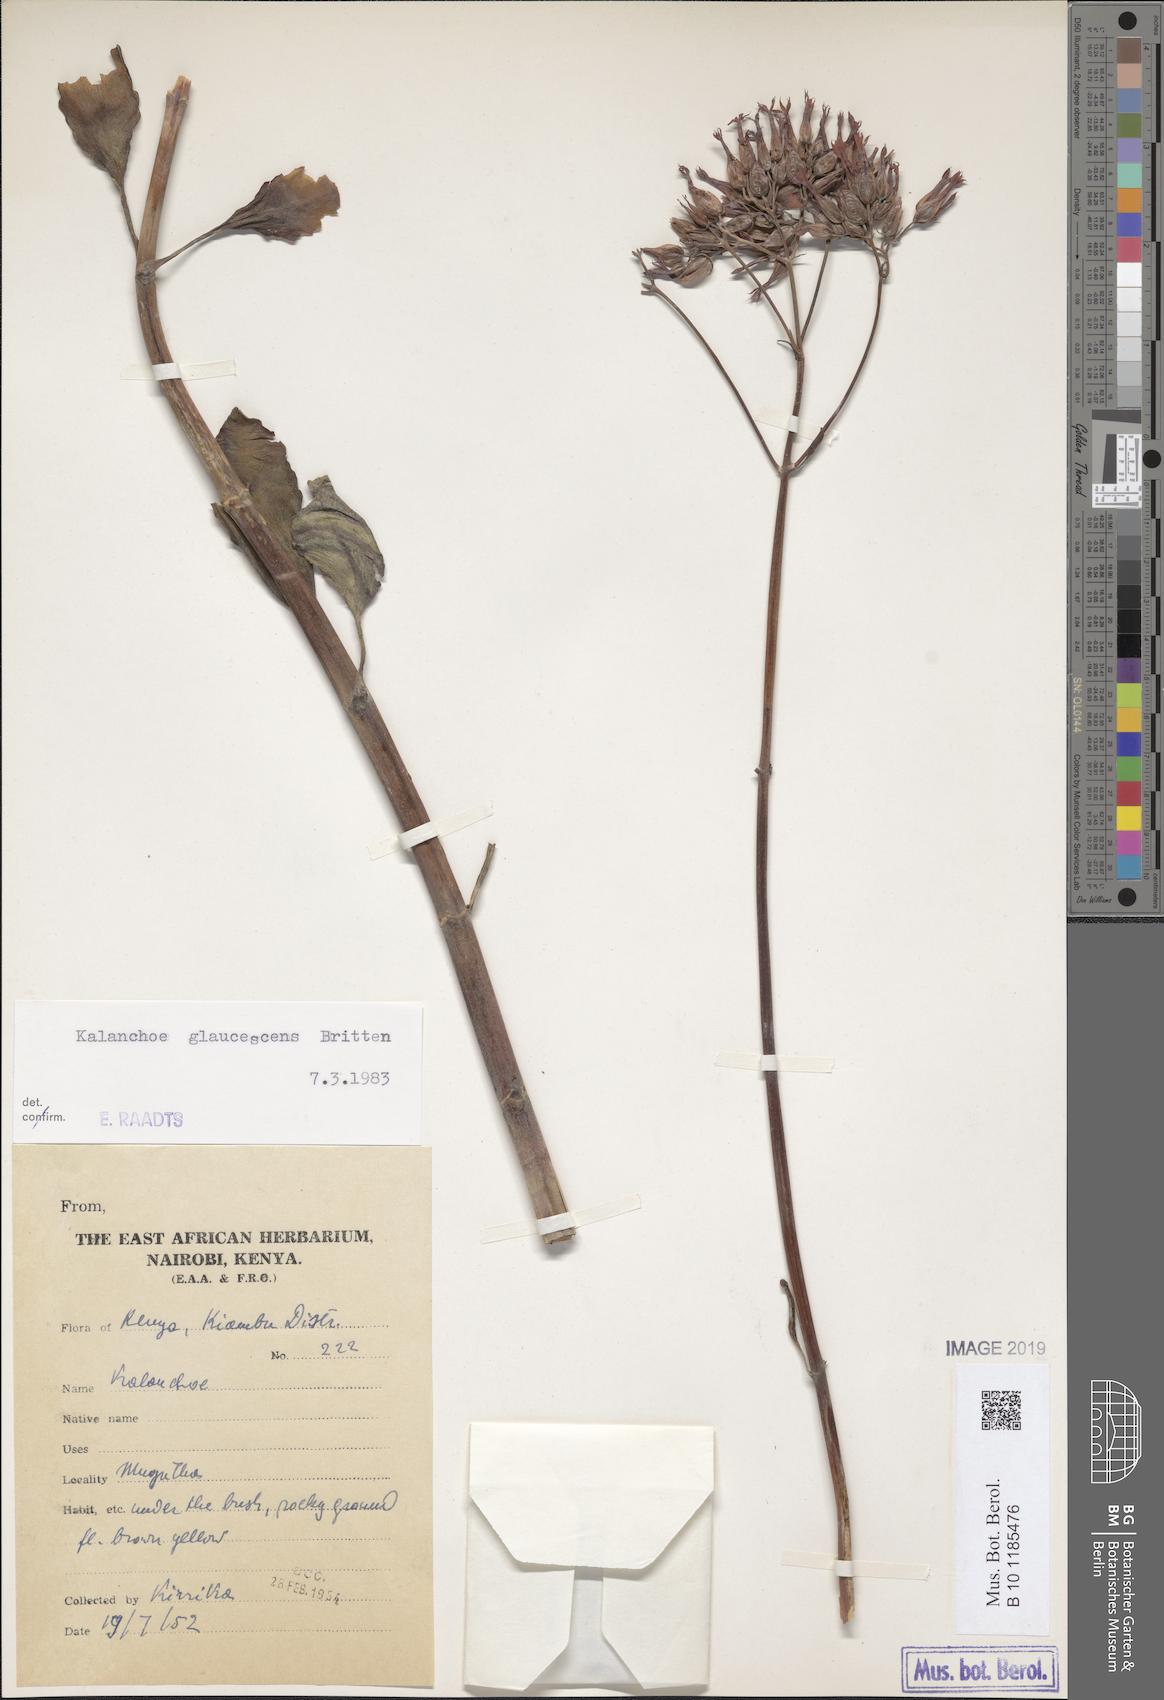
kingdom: Plantae
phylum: Tracheophyta
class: Magnoliopsida
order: Saxifragales
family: Crassulaceae
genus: Kalanchoe
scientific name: Kalanchoe glaucescens
